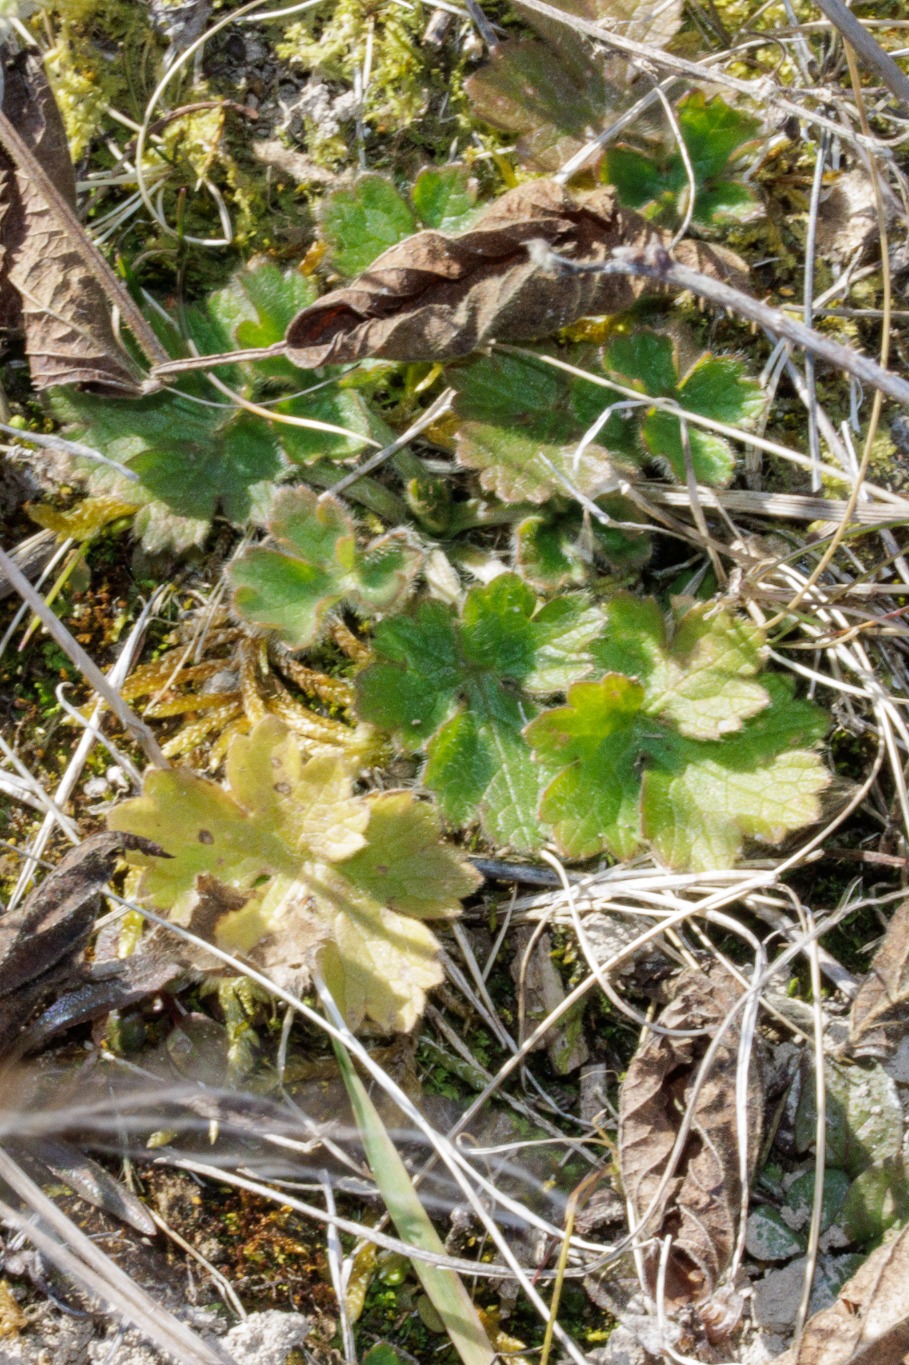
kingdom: Plantae
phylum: Tracheophyta
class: Magnoliopsida
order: Ranunculales
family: Ranunculaceae
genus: Ranunculus
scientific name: Ranunculus bulbosus
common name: Knold-ranunkel
